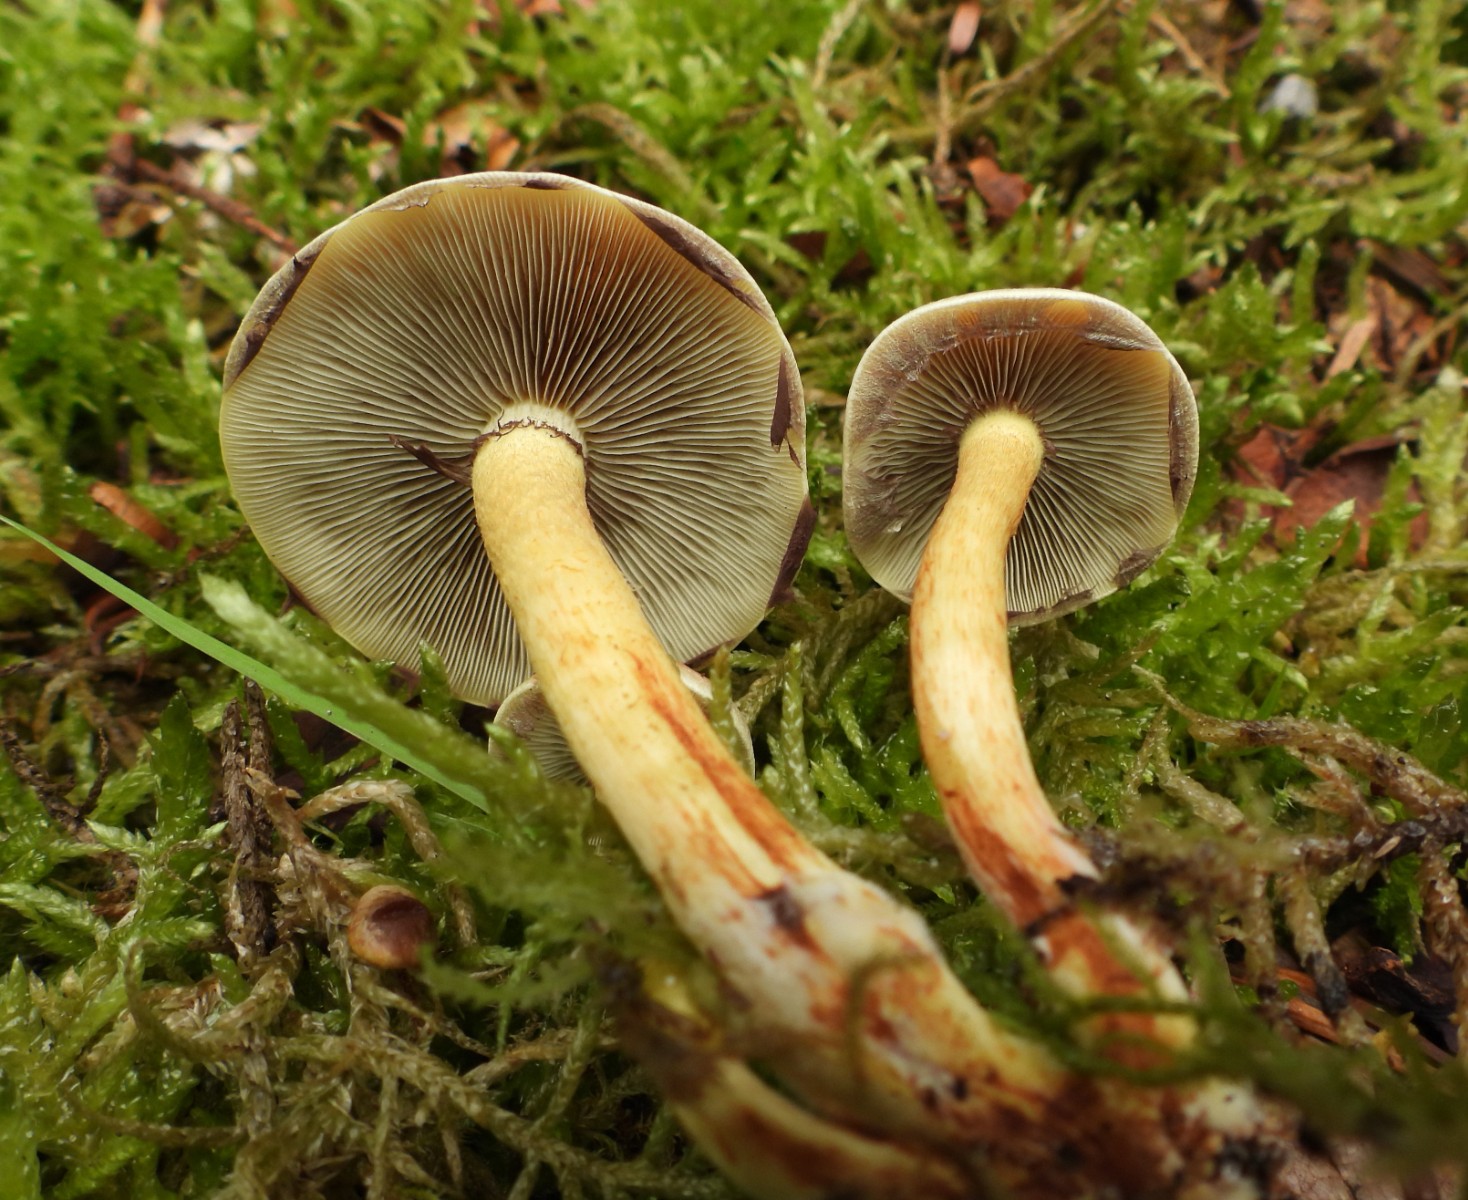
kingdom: Fungi
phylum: Basidiomycota
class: Agaricomycetes
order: Agaricales
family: Strophariaceae
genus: Hypholoma
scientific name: Hypholoma capnoides
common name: gran-svovlhat
